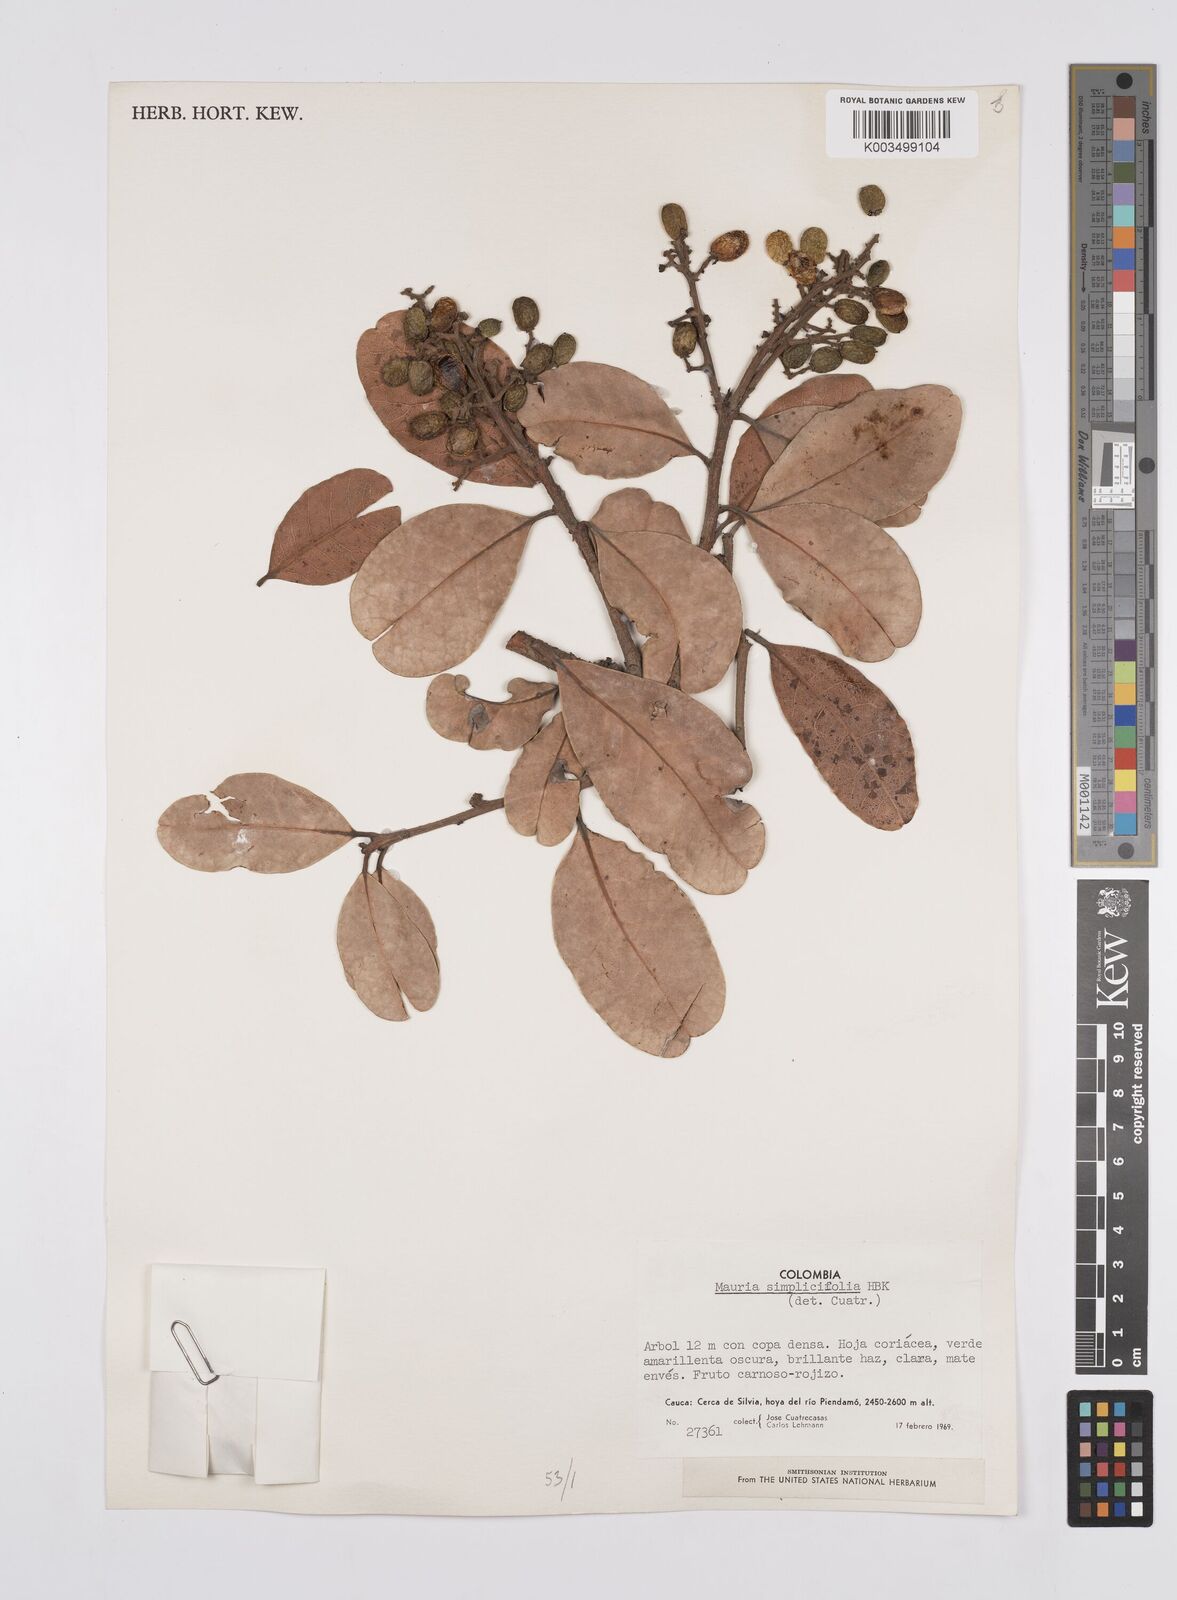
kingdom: Plantae
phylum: Tracheophyta
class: Magnoliopsida
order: Sapindales
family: Anacardiaceae
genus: Mauria
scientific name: Mauria simplicifolia
